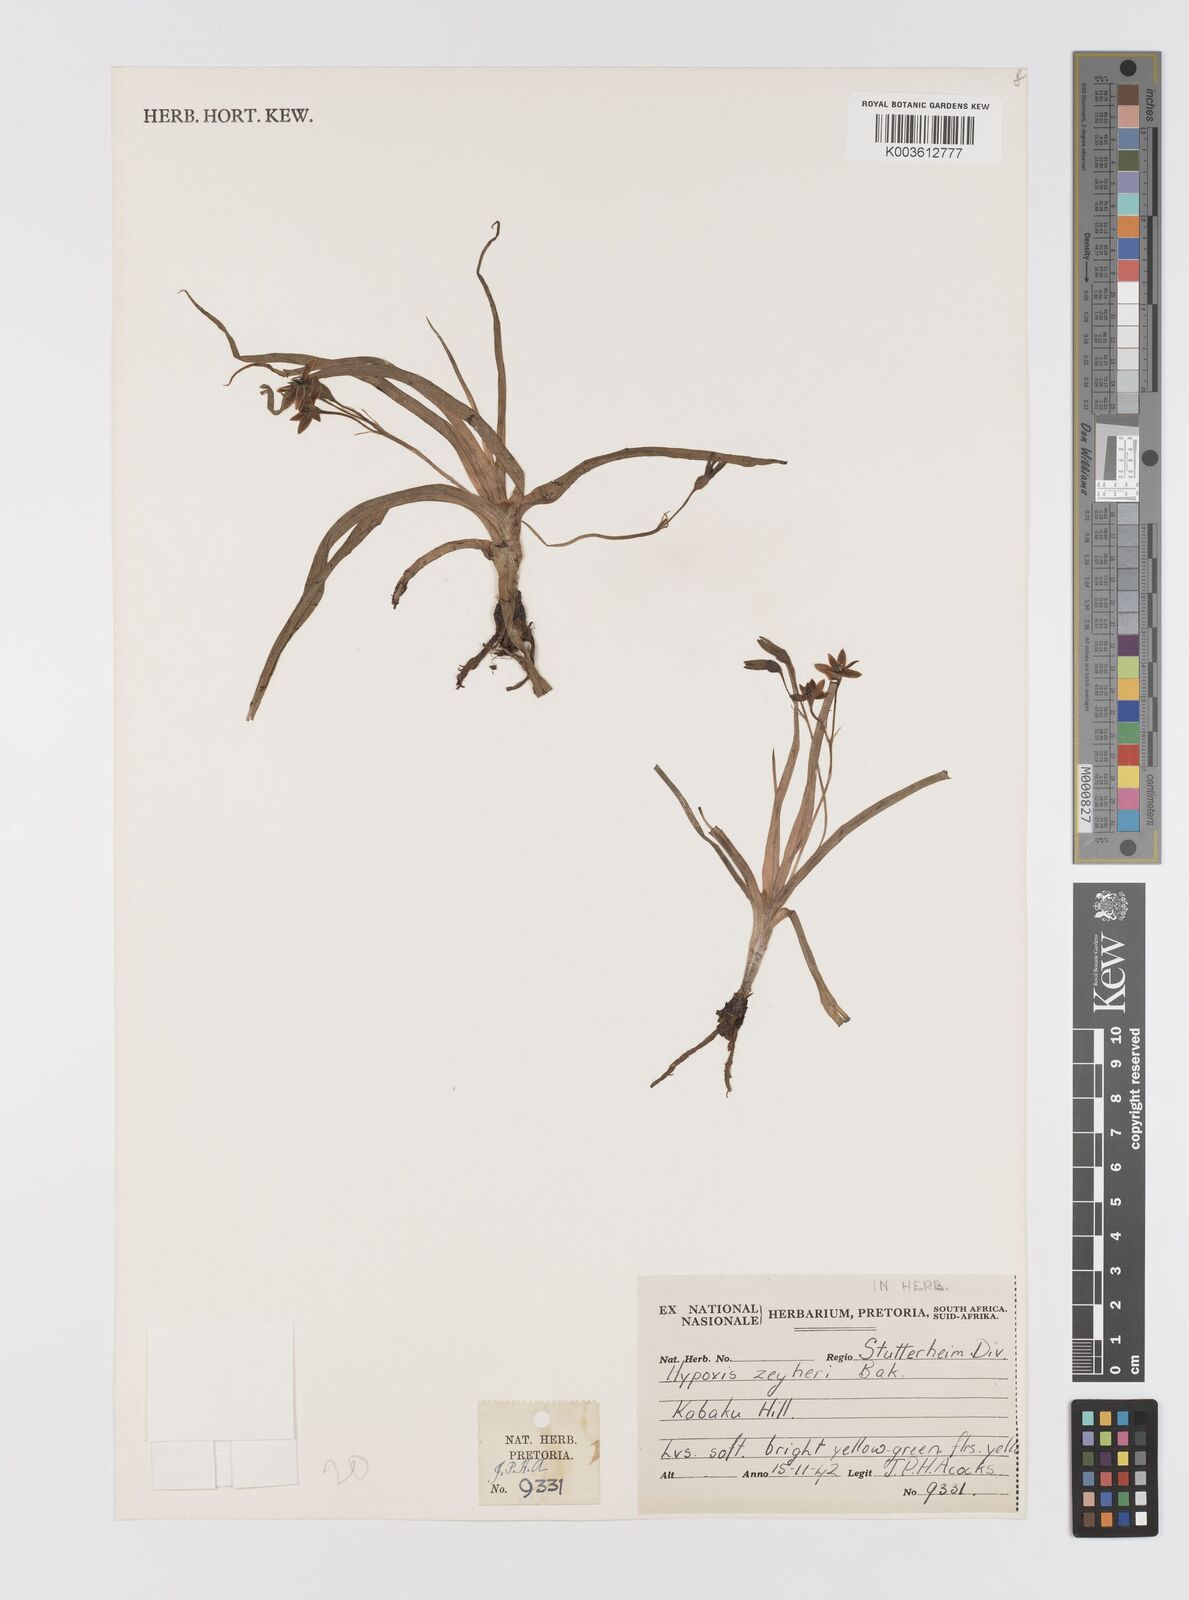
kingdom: Plantae
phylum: Tracheophyta
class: Liliopsida
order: Asparagales
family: Hypoxidaceae
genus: Hypoxis
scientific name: Hypoxis zeyheri
